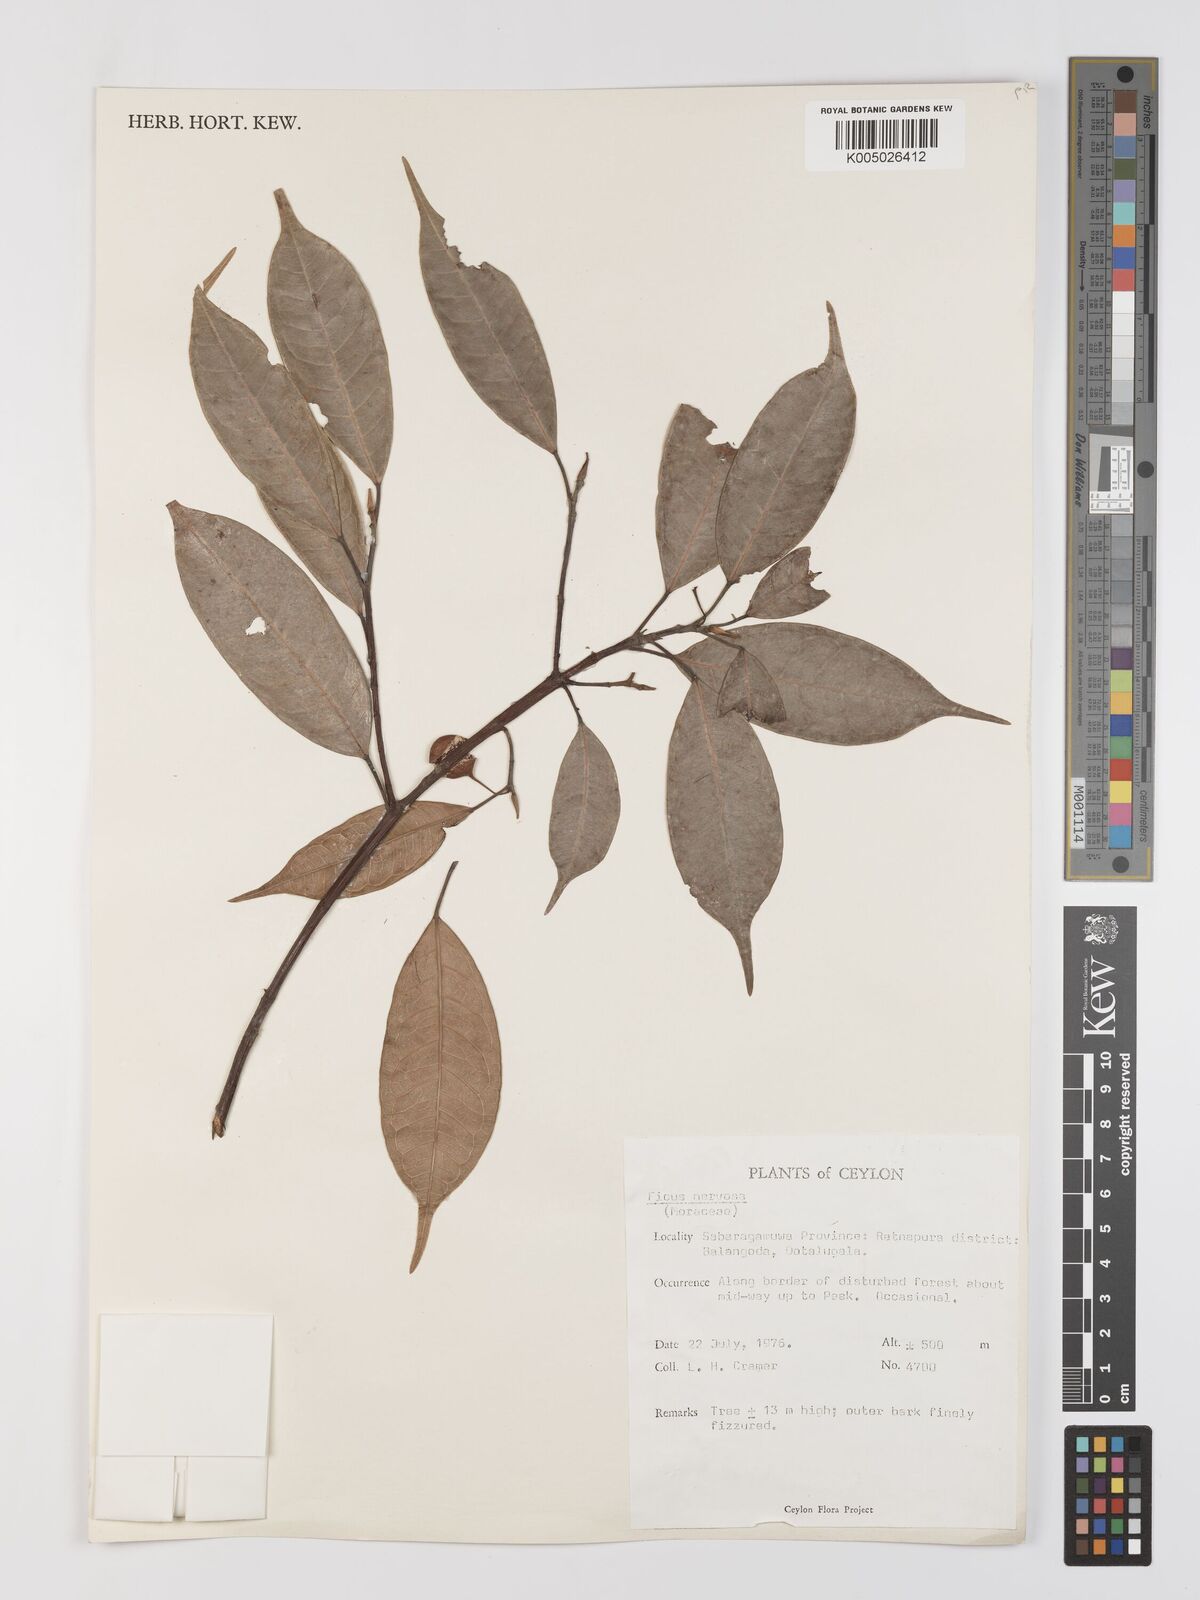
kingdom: Plantae
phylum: Tracheophyta
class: Magnoliopsida
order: Rosales
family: Moraceae
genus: Ficus
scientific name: Ficus nervosa
